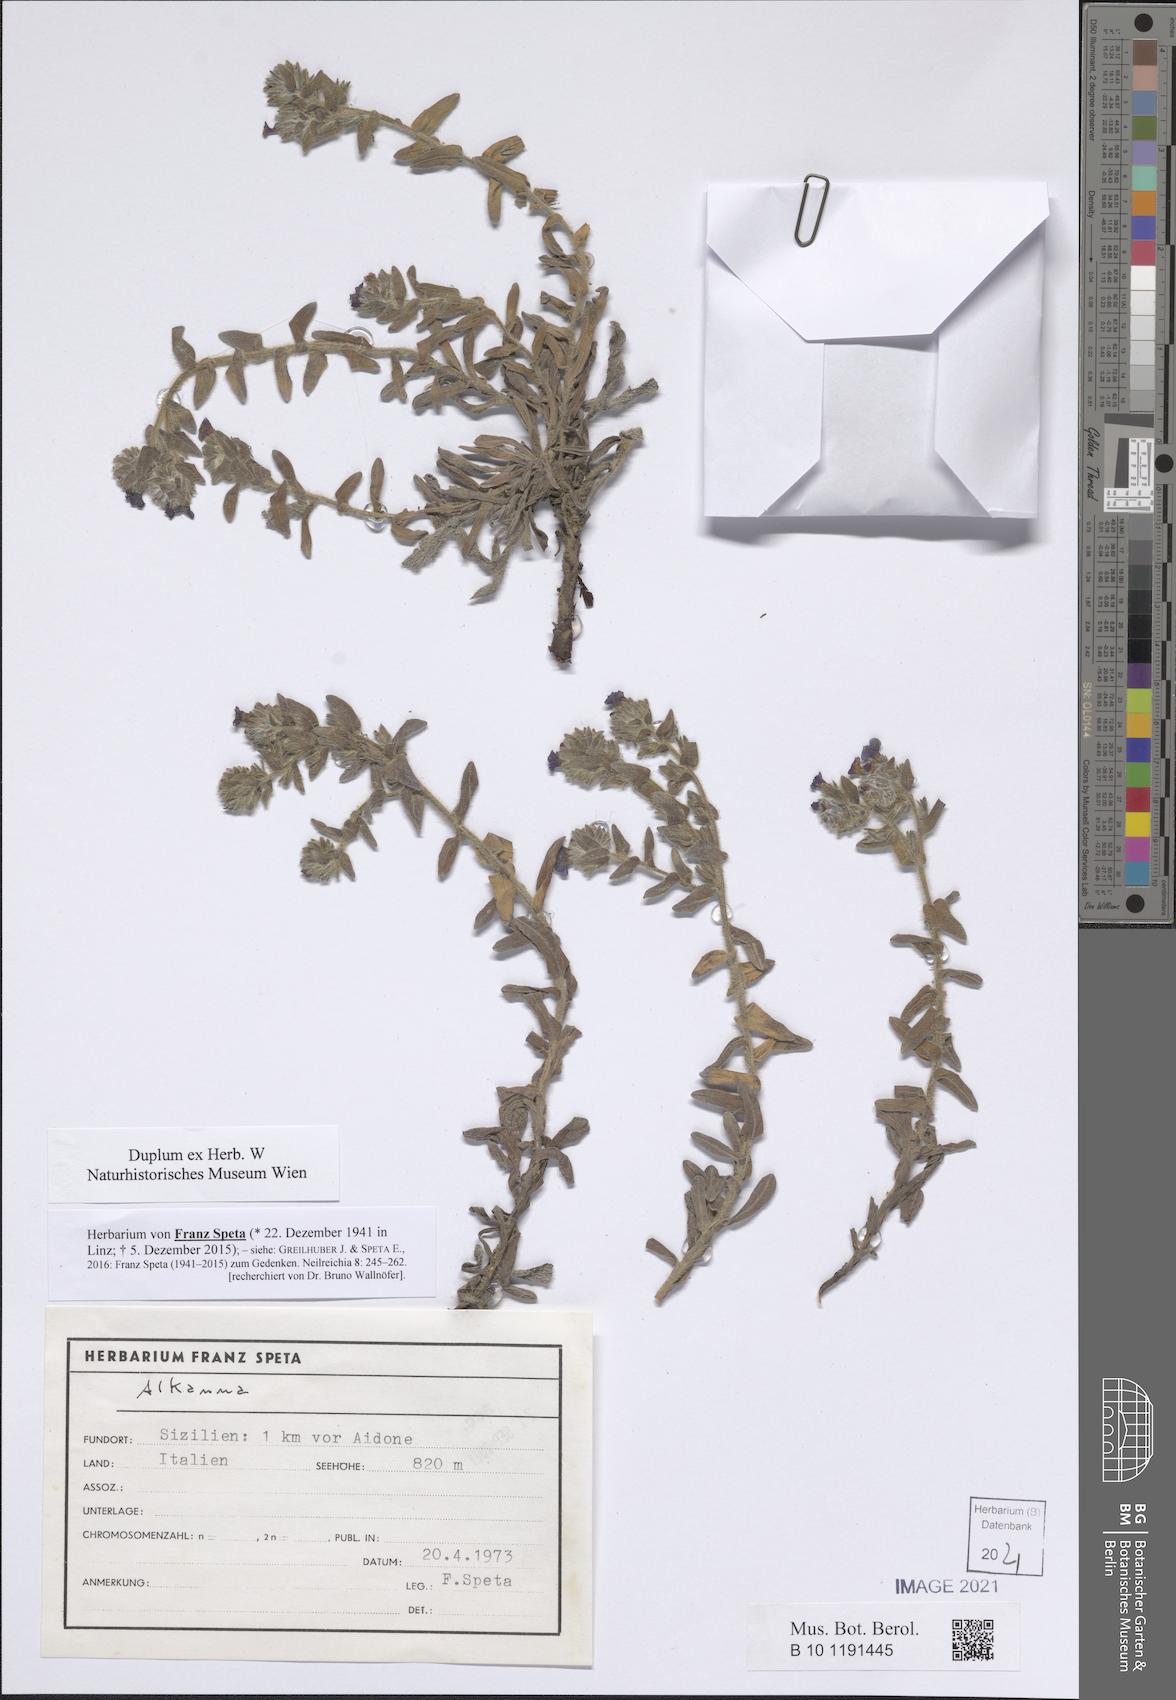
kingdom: Plantae
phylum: Tracheophyta
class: Magnoliopsida
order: Boraginales
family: Boraginaceae
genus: Alkanna
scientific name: Alkanna
